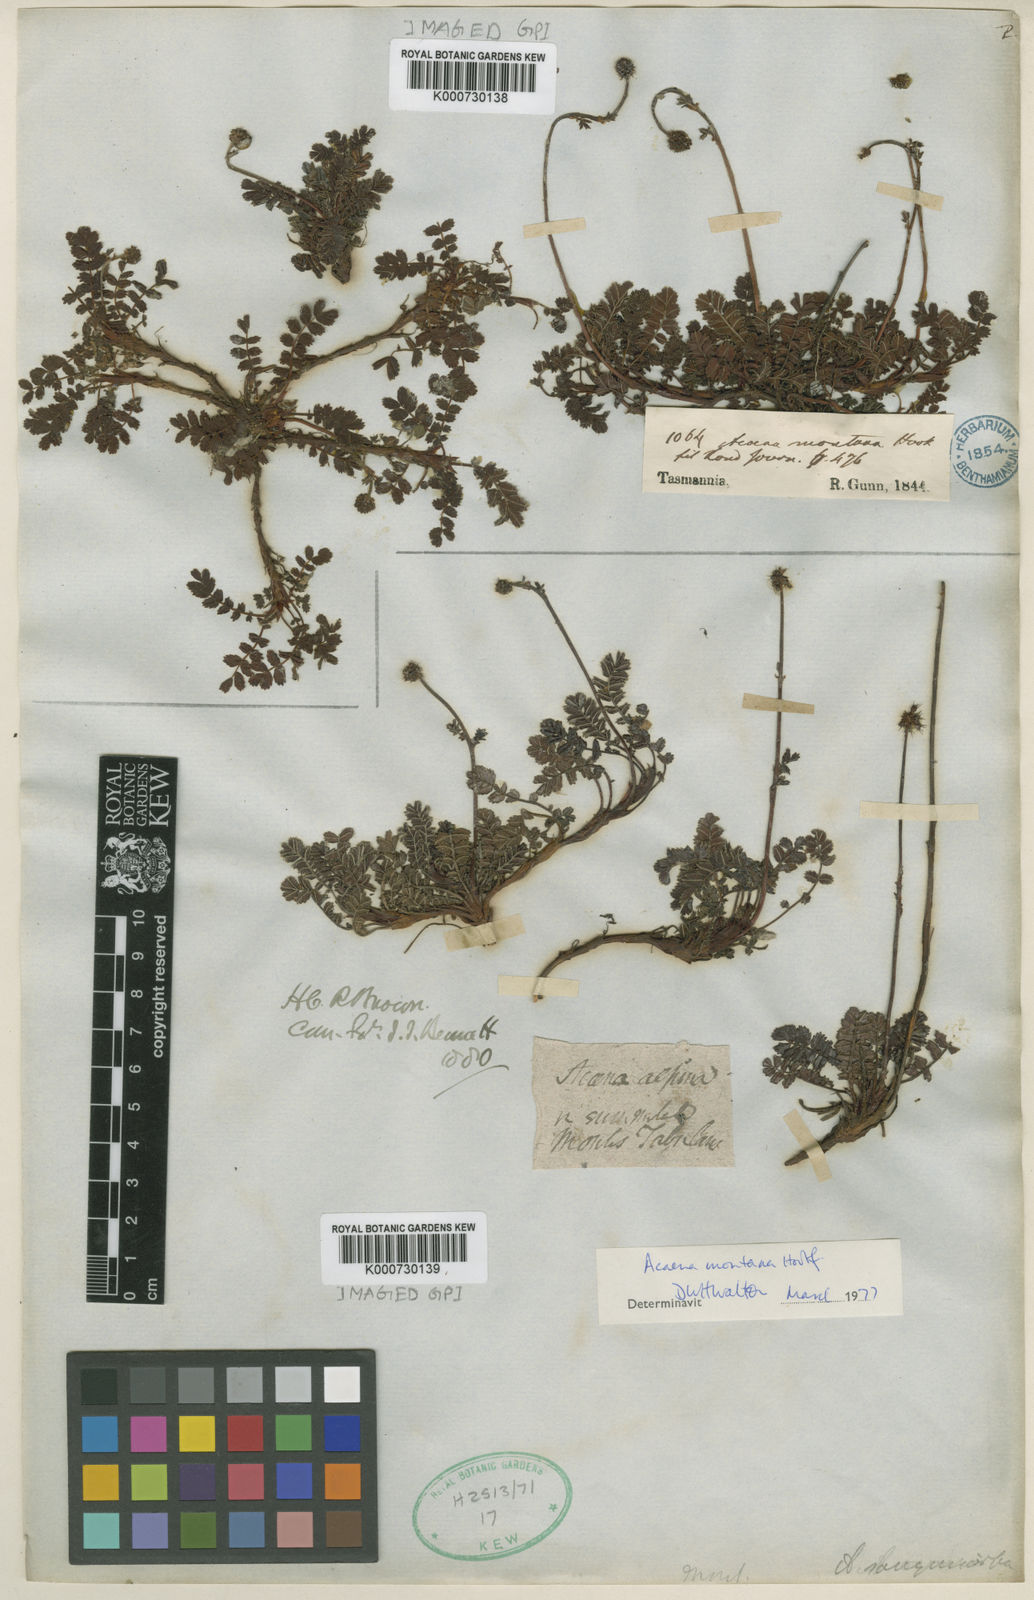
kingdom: Plantae
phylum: Tracheophyta
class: Magnoliopsida
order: Rosales
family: Rosaceae
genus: Acaena
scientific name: Acaena
